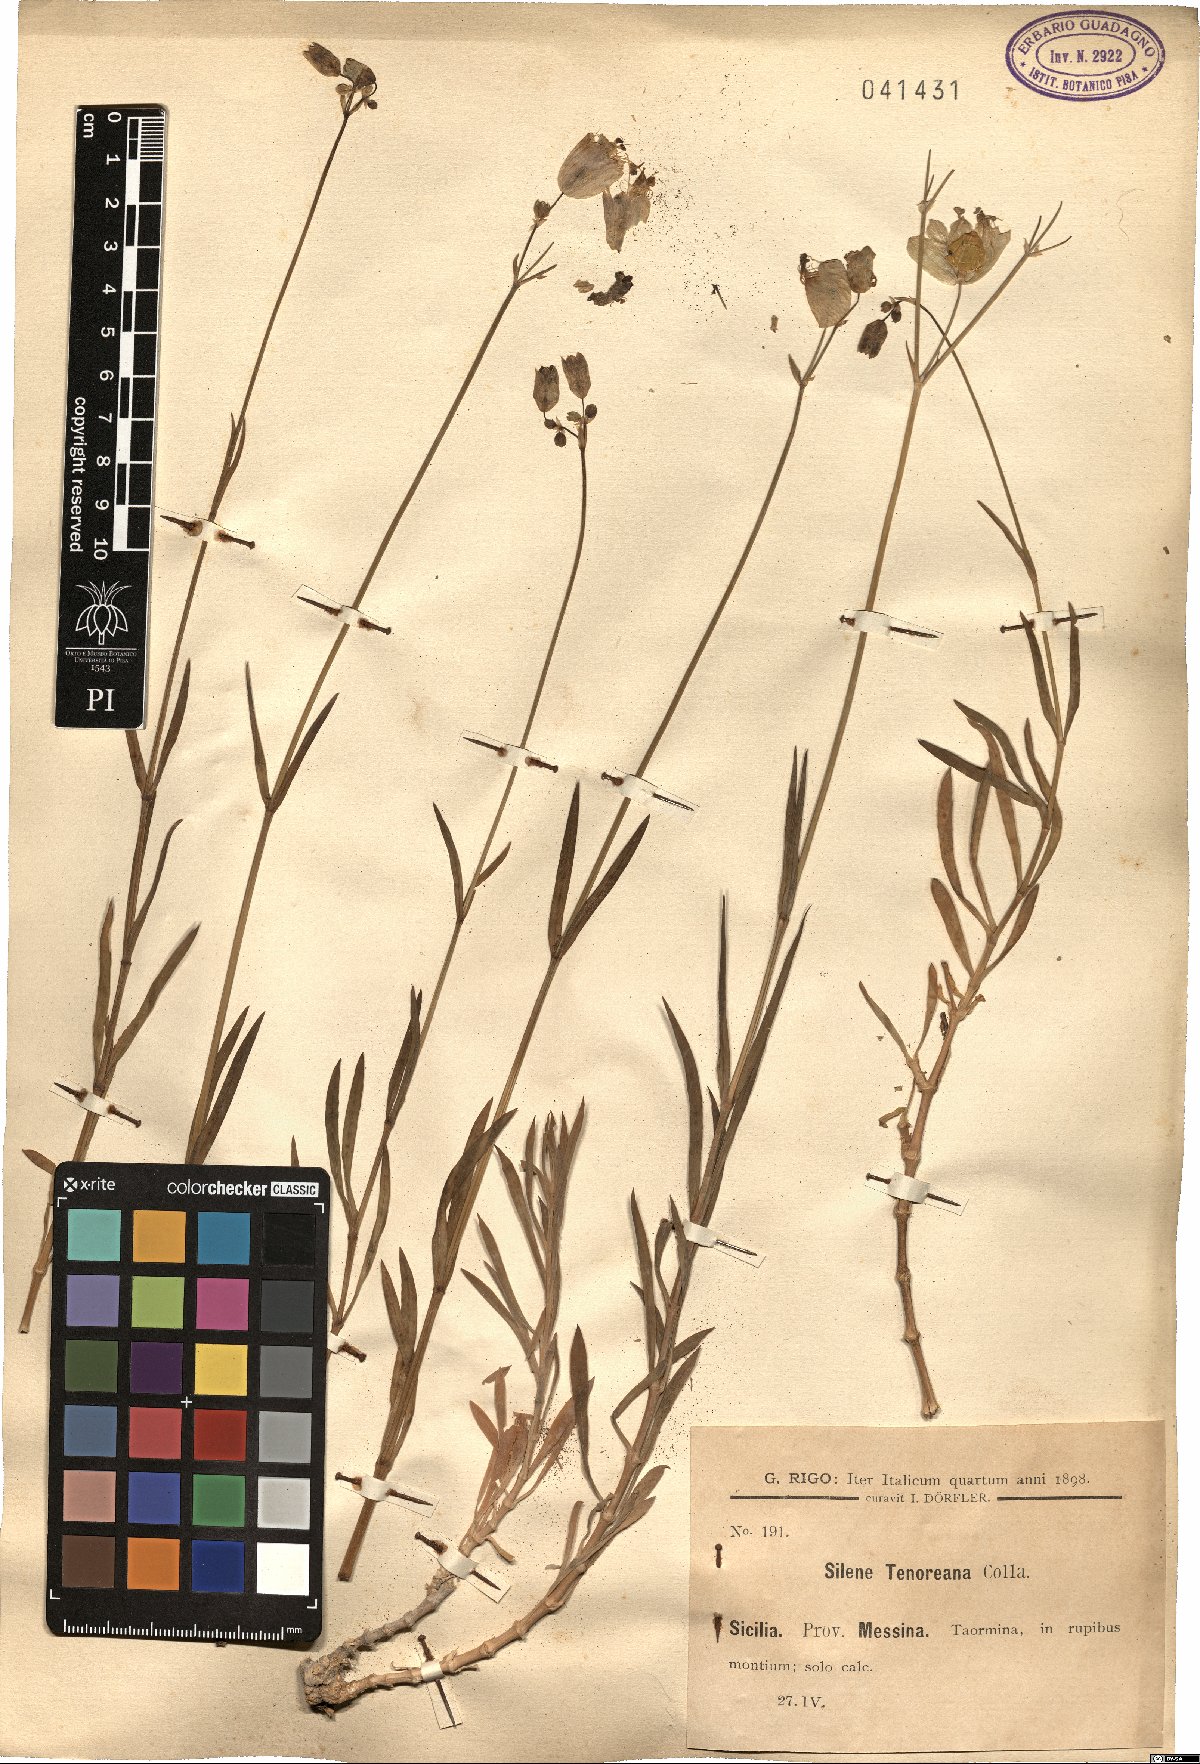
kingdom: Plantae
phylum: Tracheophyta
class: Magnoliopsida
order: Caryophyllales
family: Caryophyllaceae
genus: Silene
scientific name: Silene vulgaris
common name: Bladder campion
